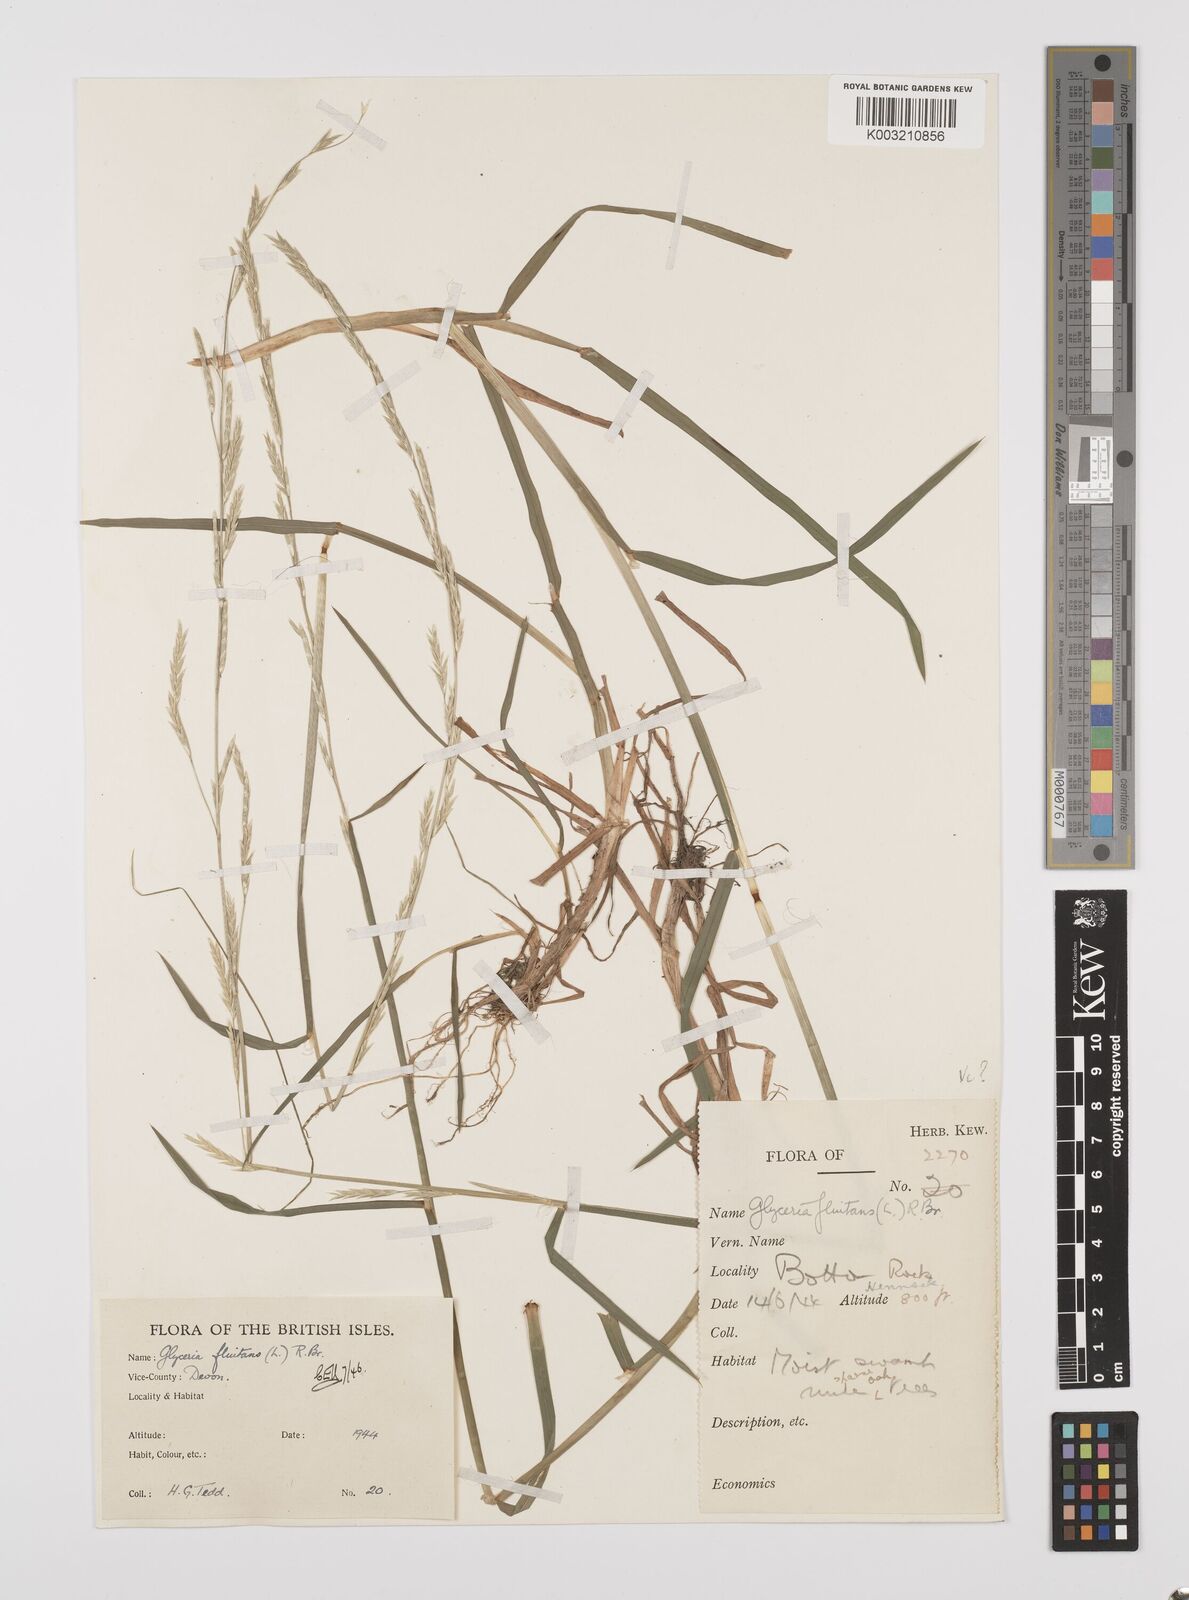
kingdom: Plantae
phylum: Tracheophyta
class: Liliopsida
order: Poales
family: Poaceae
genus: Glyceria
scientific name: Glyceria fluitans
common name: Floating sweet-grass
